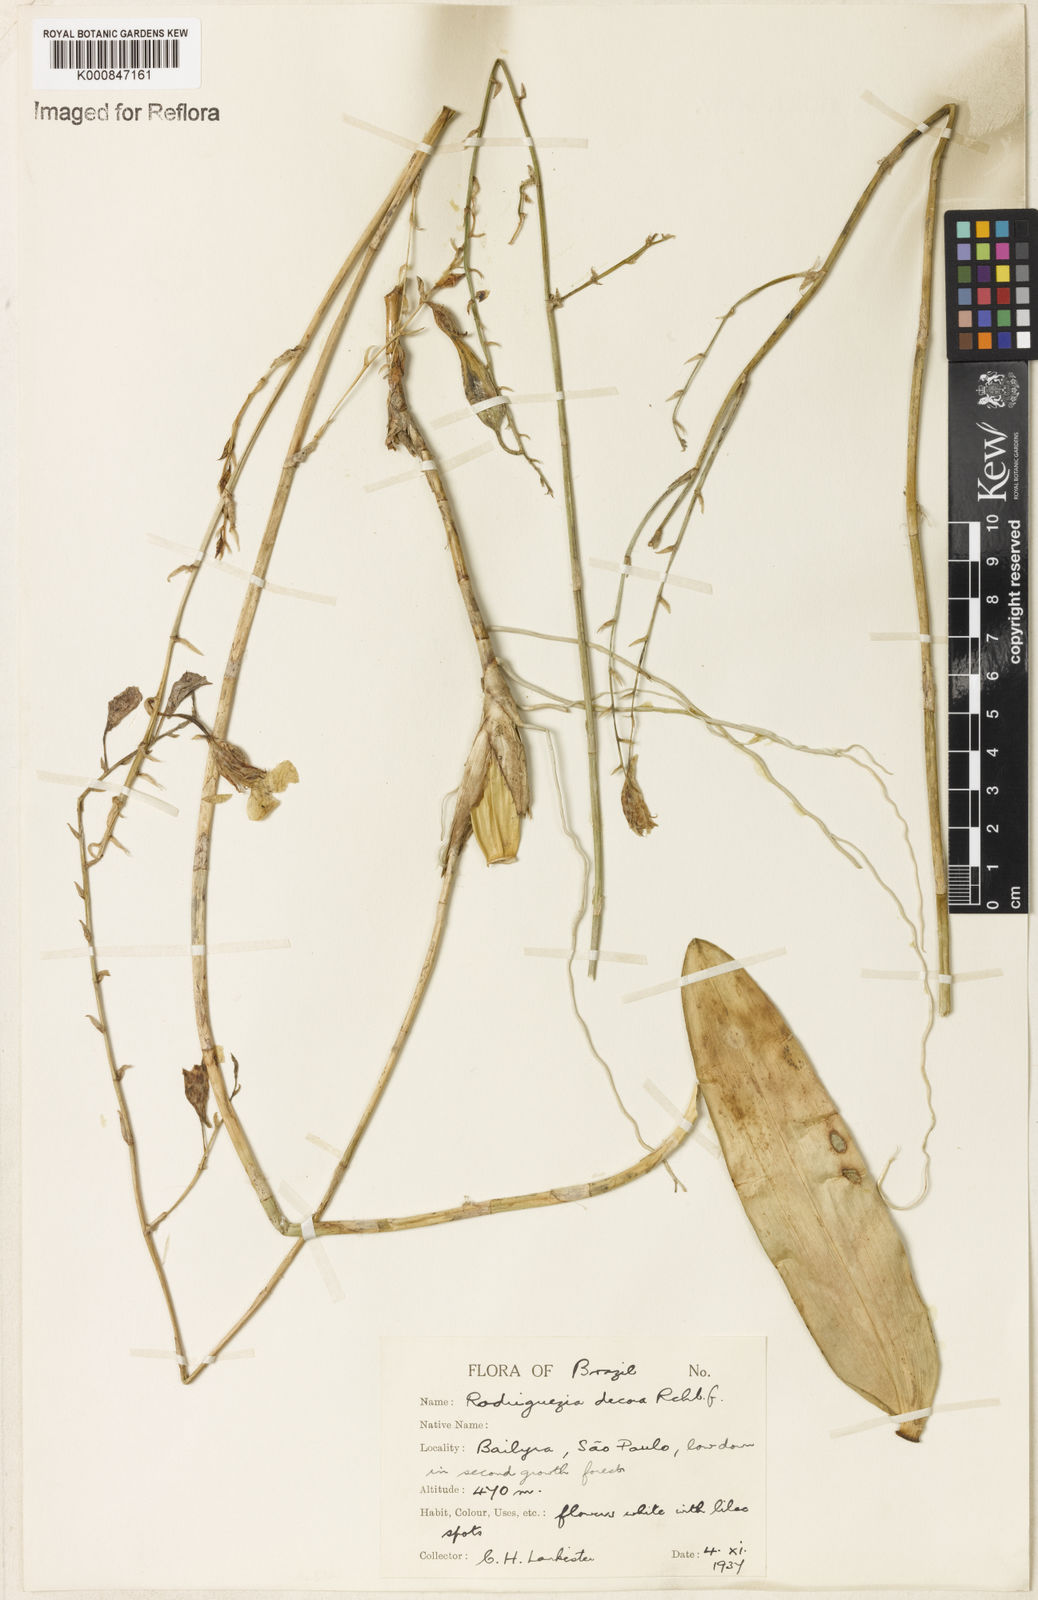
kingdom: Plantae
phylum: Tracheophyta
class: Liliopsida
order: Asparagales
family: Orchidaceae
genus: Rodriguezia
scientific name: Rodriguezia decora
